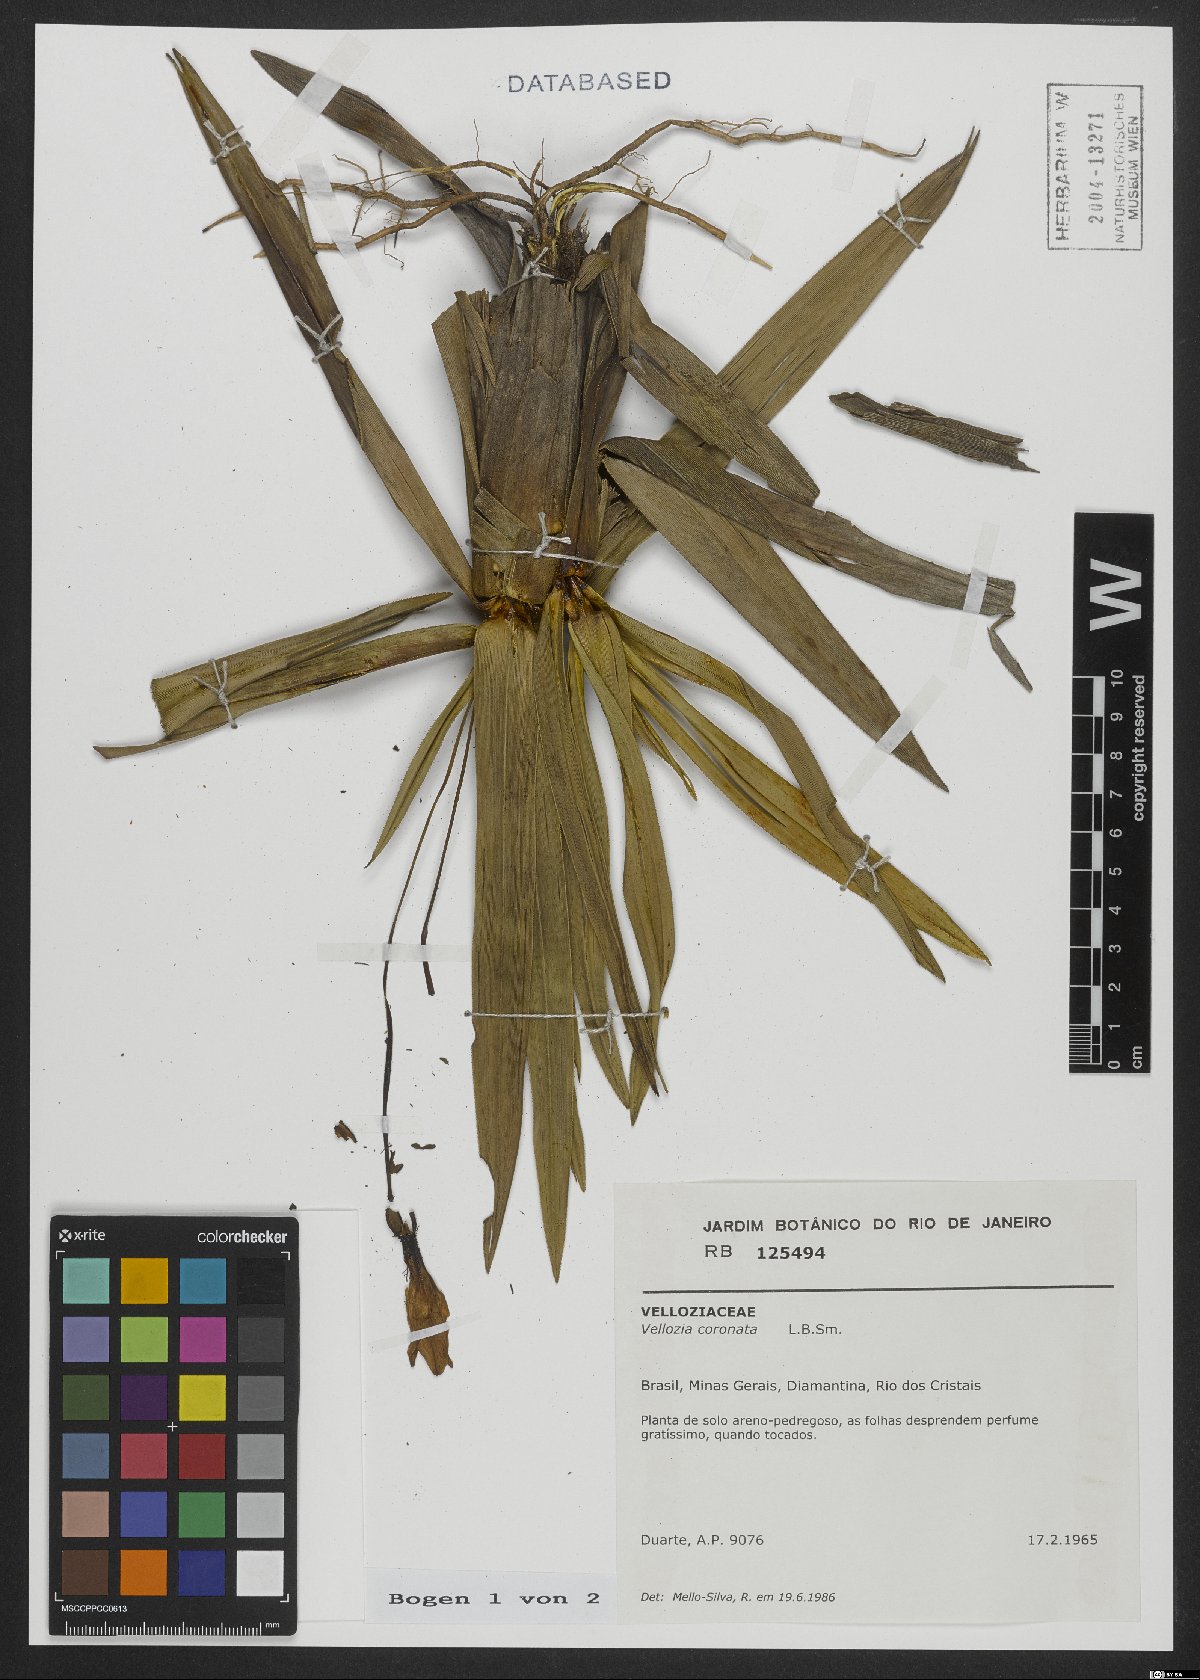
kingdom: Plantae
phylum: Tracheophyta
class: Liliopsida
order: Pandanales
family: Velloziaceae
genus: Vellozia
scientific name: Vellozia coronata
